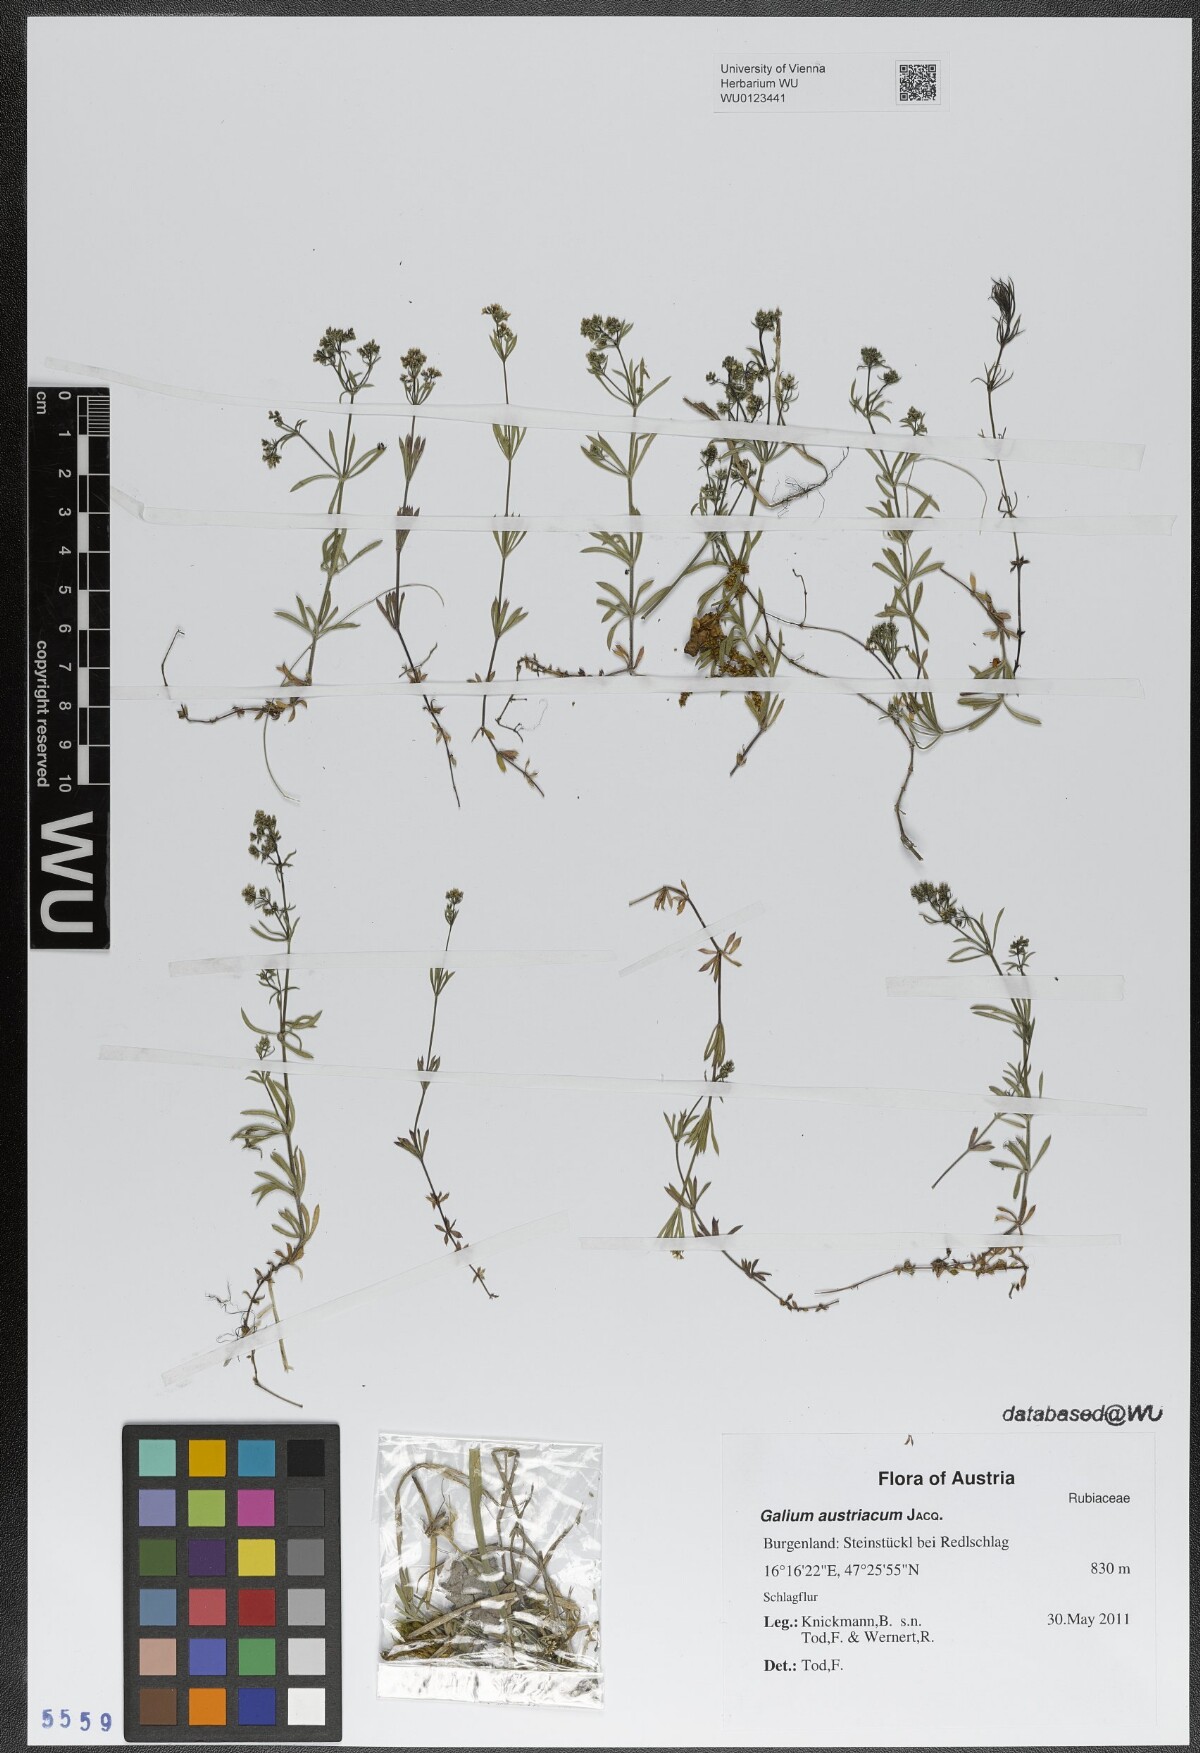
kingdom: Plantae
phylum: Tracheophyta
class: Magnoliopsida
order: Gentianales
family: Rubiaceae
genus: Galium
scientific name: Galium austriacum
